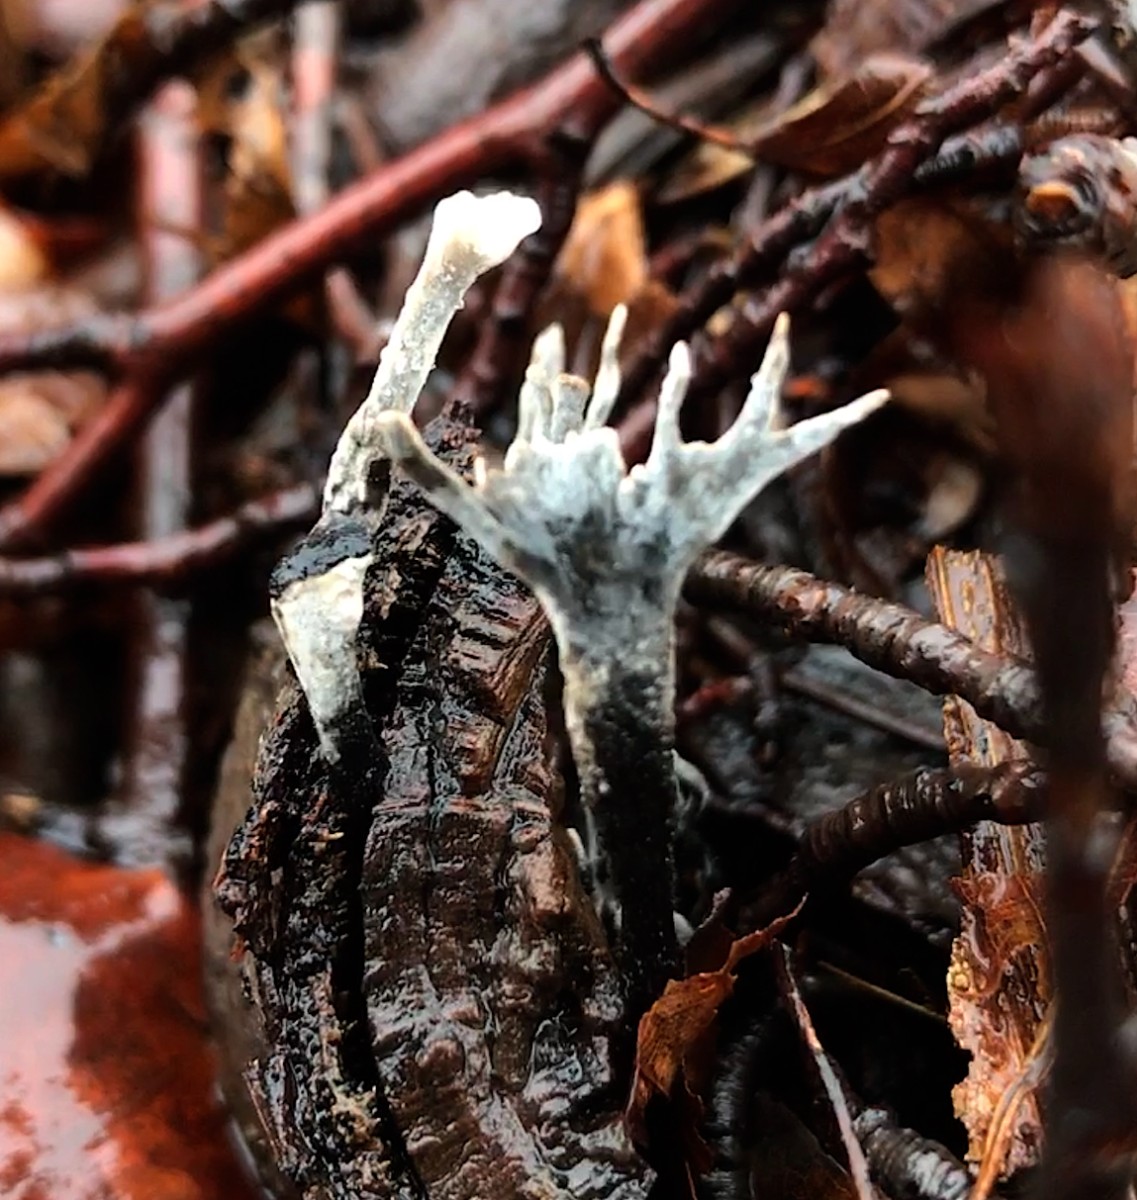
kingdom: Fungi
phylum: Ascomycota
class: Sordariomycetes
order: Xylariales
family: Xylariaceae
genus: Xylaria
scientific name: Xylaria hypoxylon
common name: grenet stødsvamp
